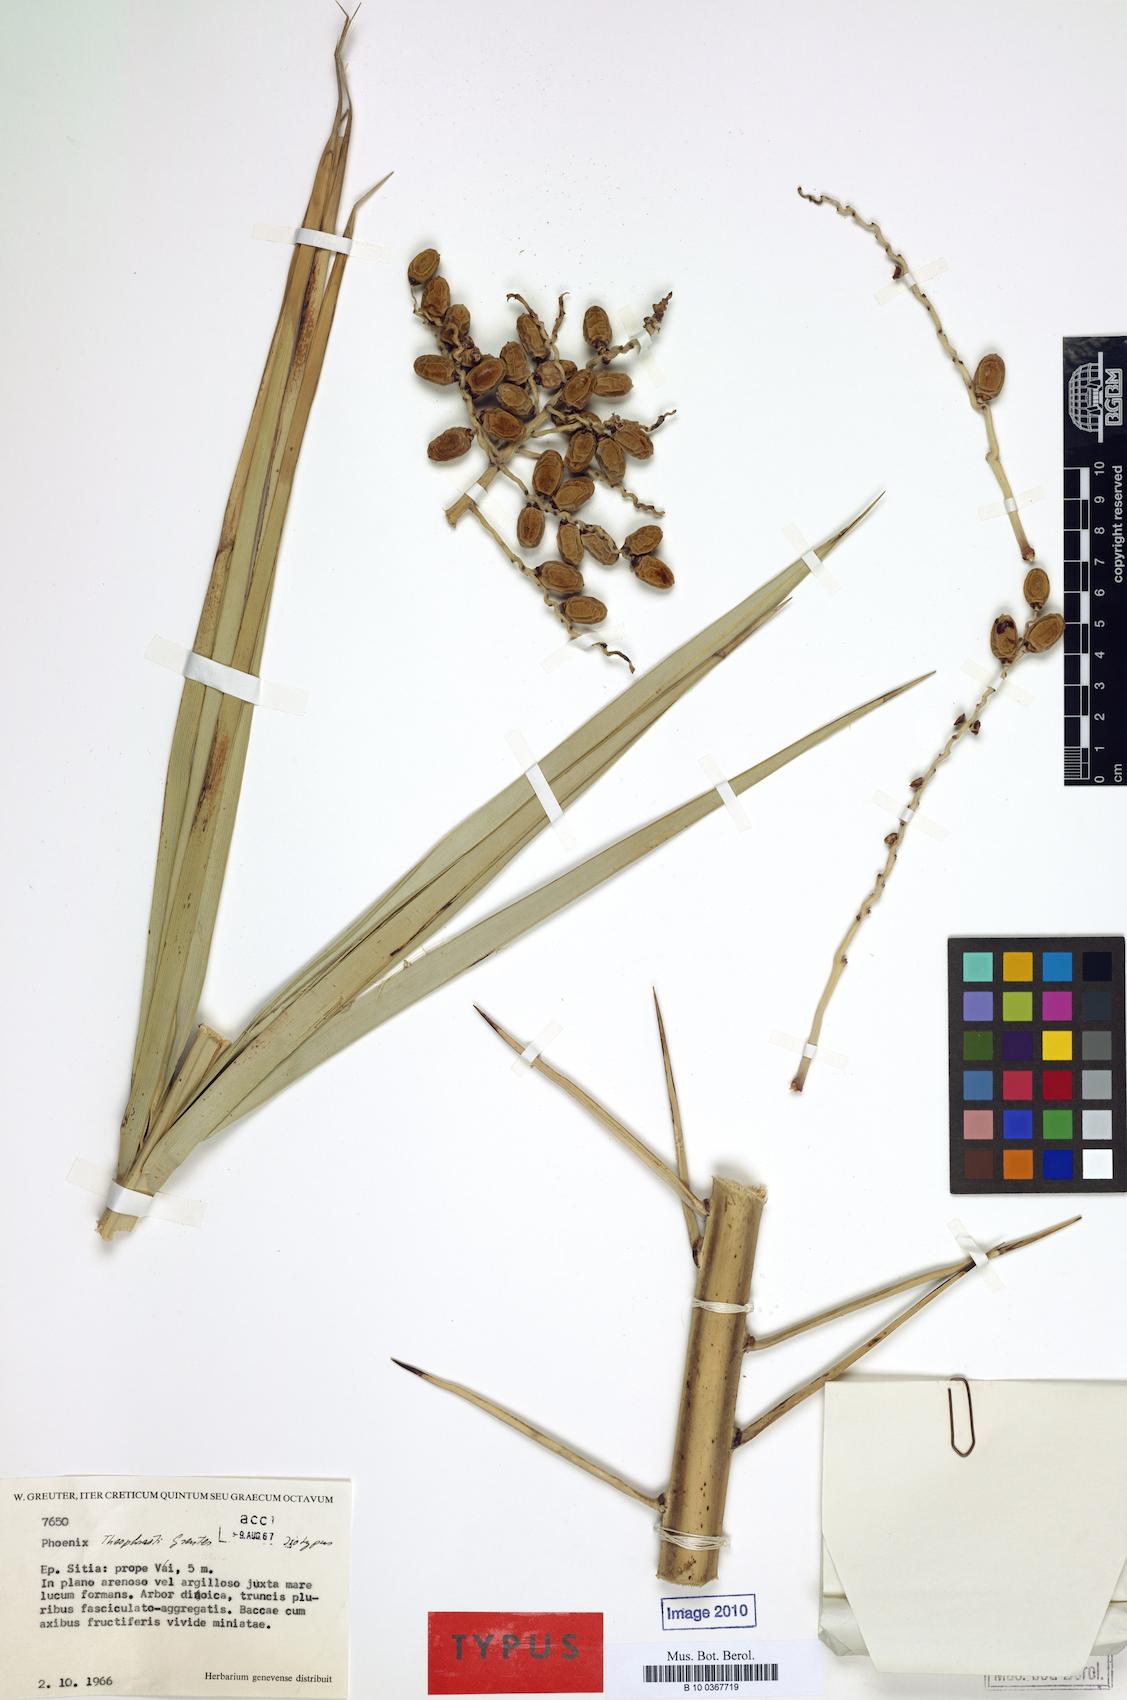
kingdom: Plantae
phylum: Tracheophyta
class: Liliopsida
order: Arecales
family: Arecaceae
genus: Phoenix
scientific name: Phoenix theophrasti
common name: Cretan date palm
